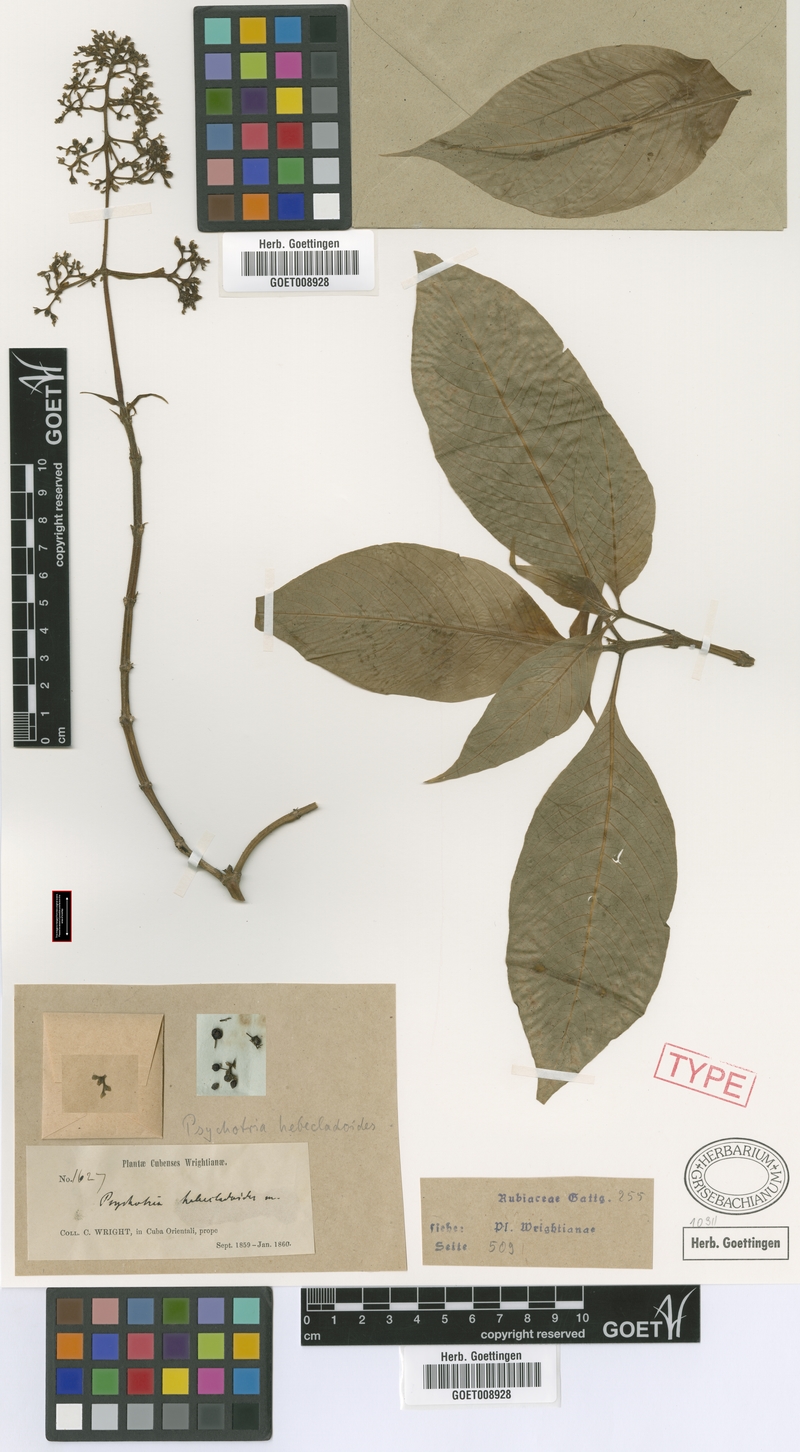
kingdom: Plantae
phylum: Tracheophyta
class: Magnoliopsida
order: Gentianales
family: Rubiaceae
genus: Palicourea
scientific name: Palicourea berteroana
